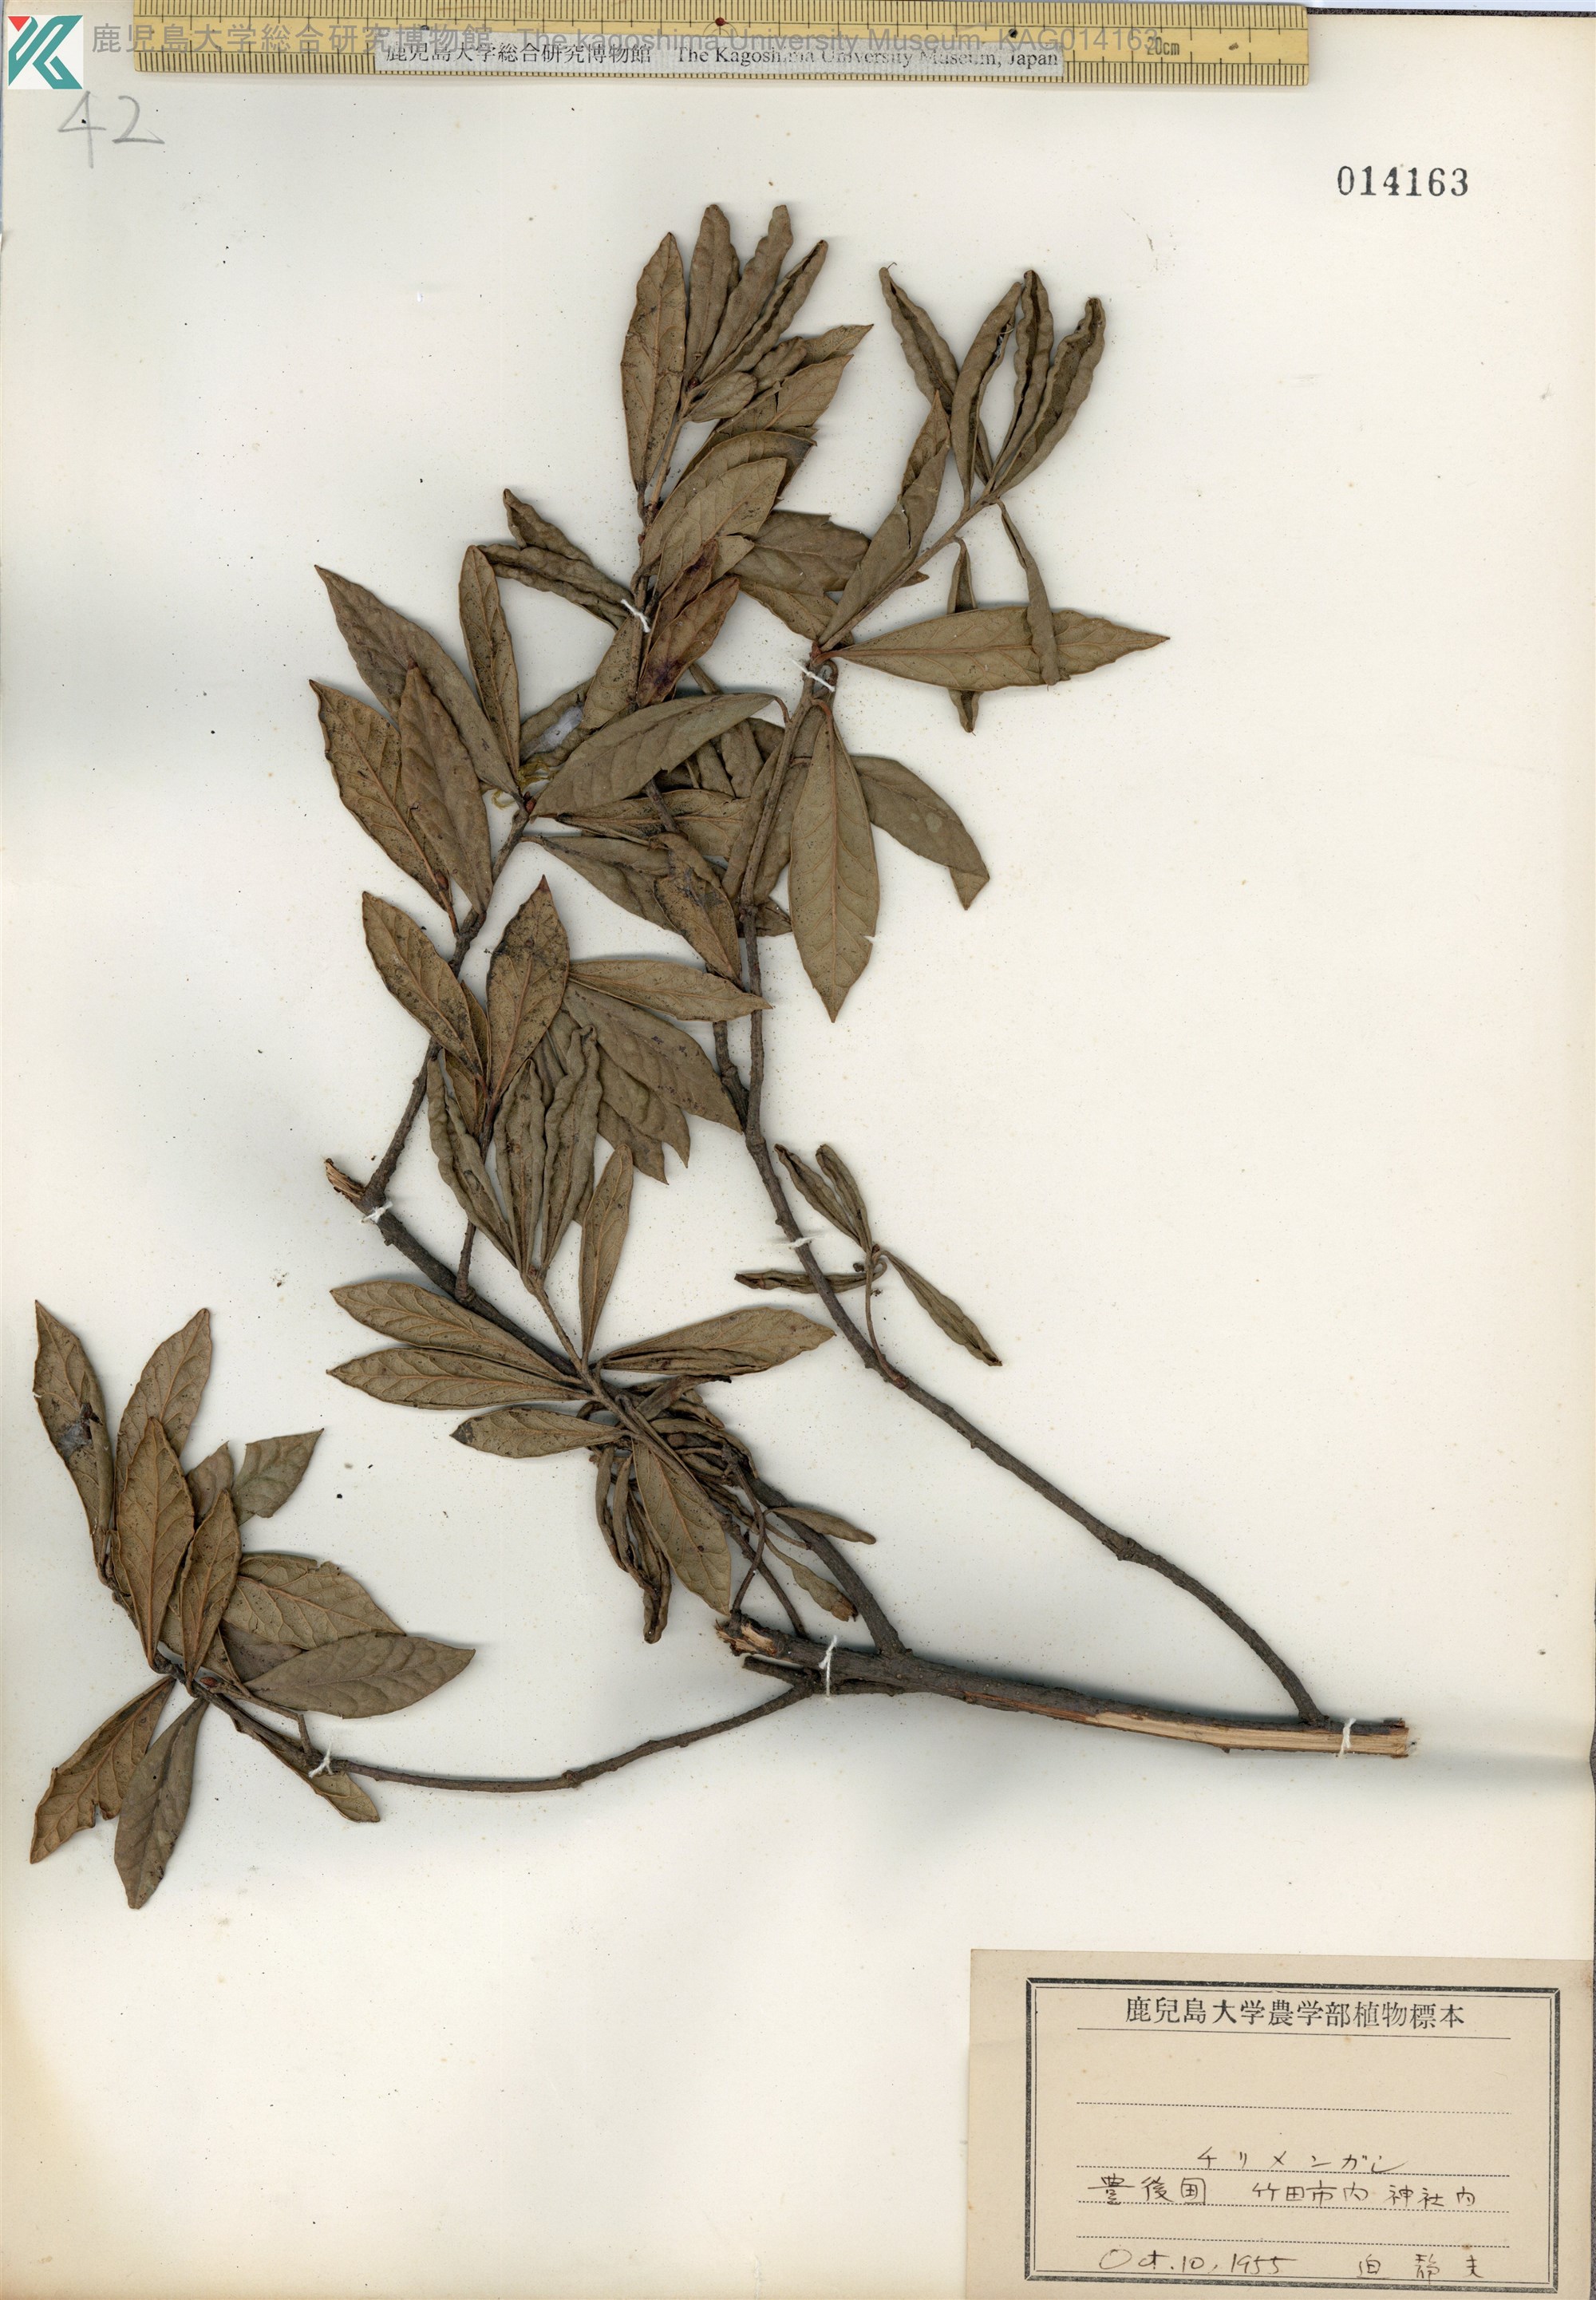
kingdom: Plantae
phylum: Tracheophyta
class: Magnoliopsida
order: Fagales
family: Fagaceae
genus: Quercus
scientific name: Quercus phillyreoides
